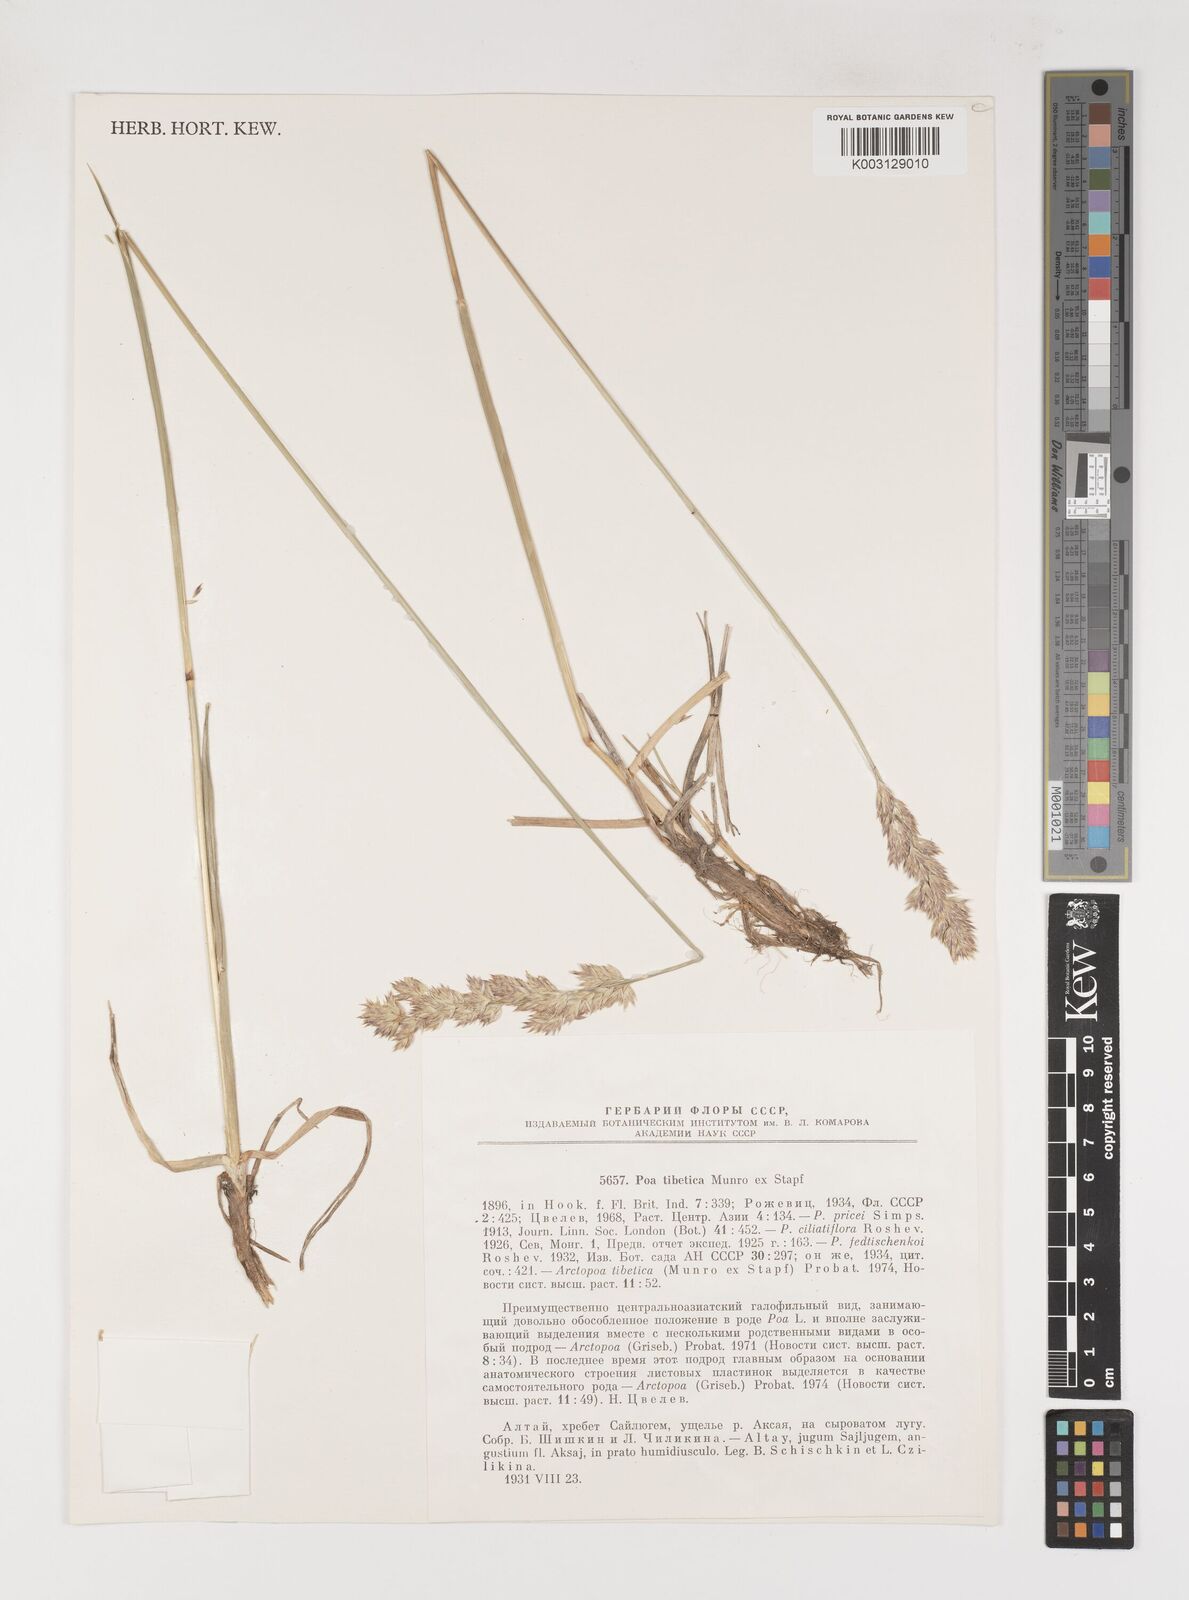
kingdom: Plantae
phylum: Tracheophyta
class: Liliopsida
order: Poales
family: Poaceae
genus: Arctopoa
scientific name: Arctopoa tibetica
